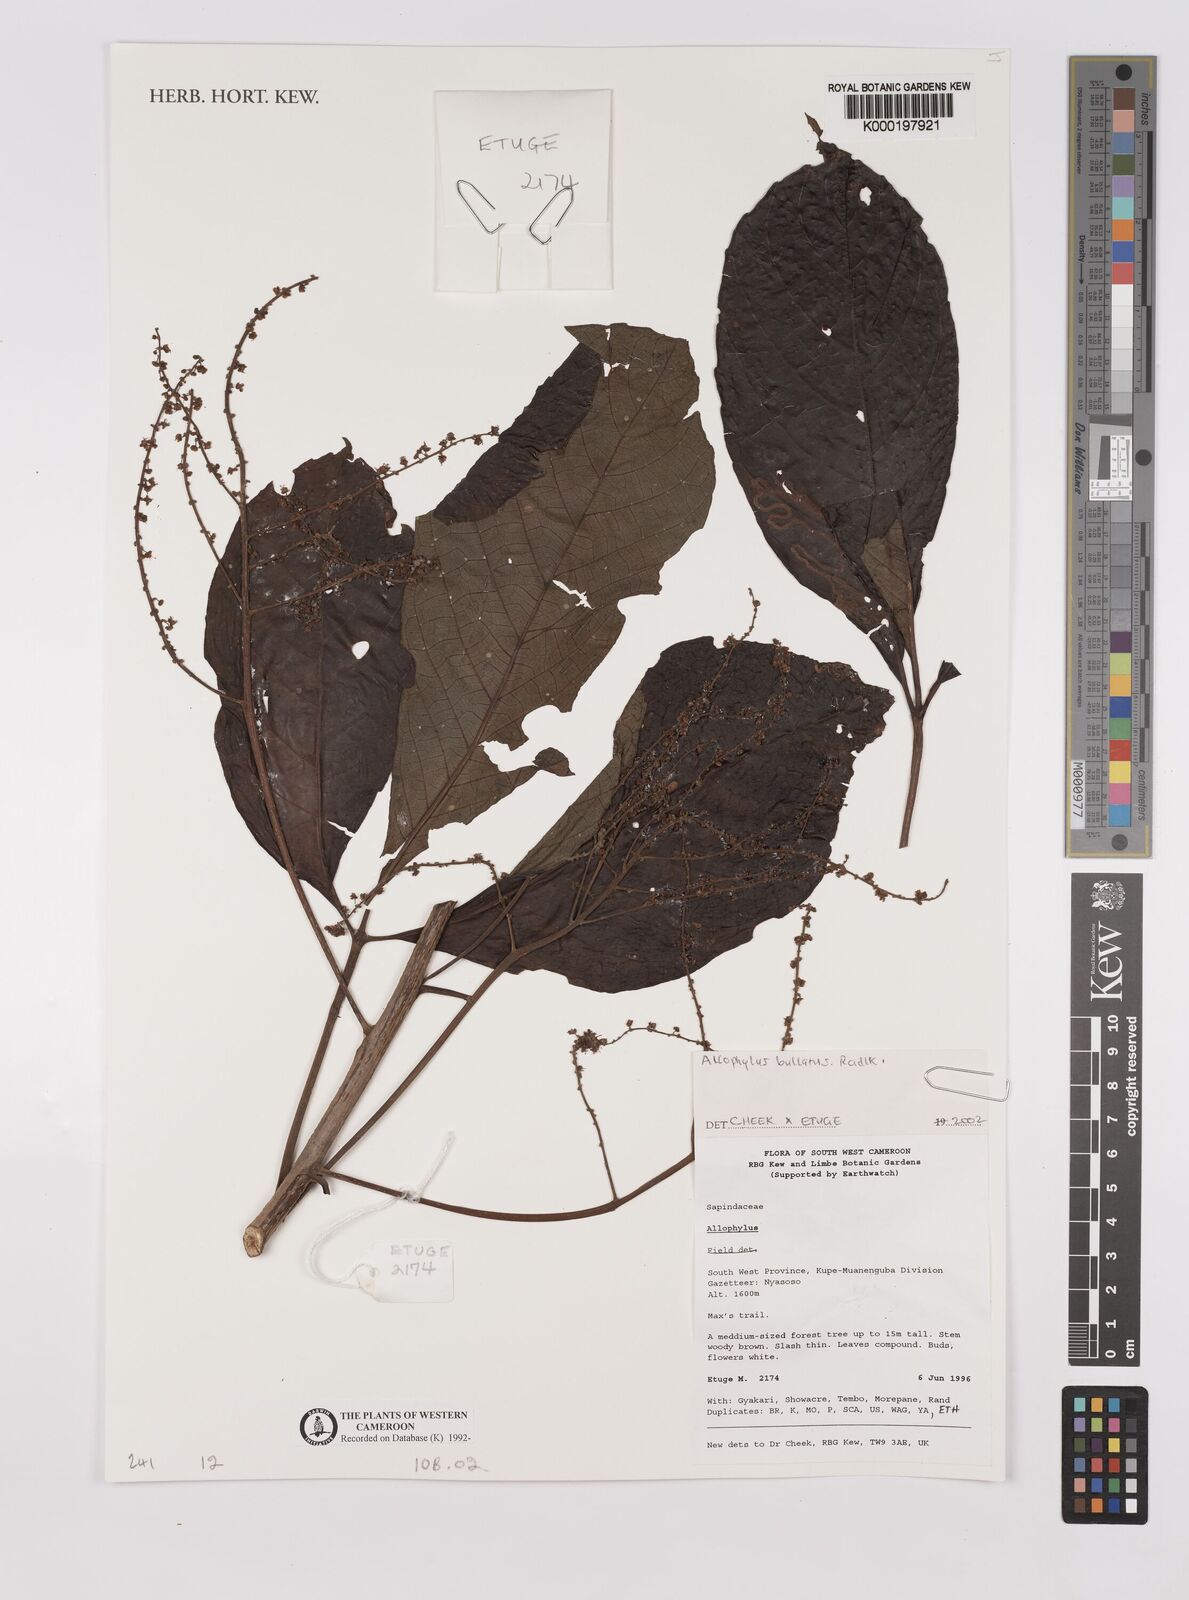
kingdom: Plantae
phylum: Tracheophyta
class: Magnoliopsida
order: Sapindales
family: Sapindaceae
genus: Allophylus
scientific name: Allophylus bullatus
